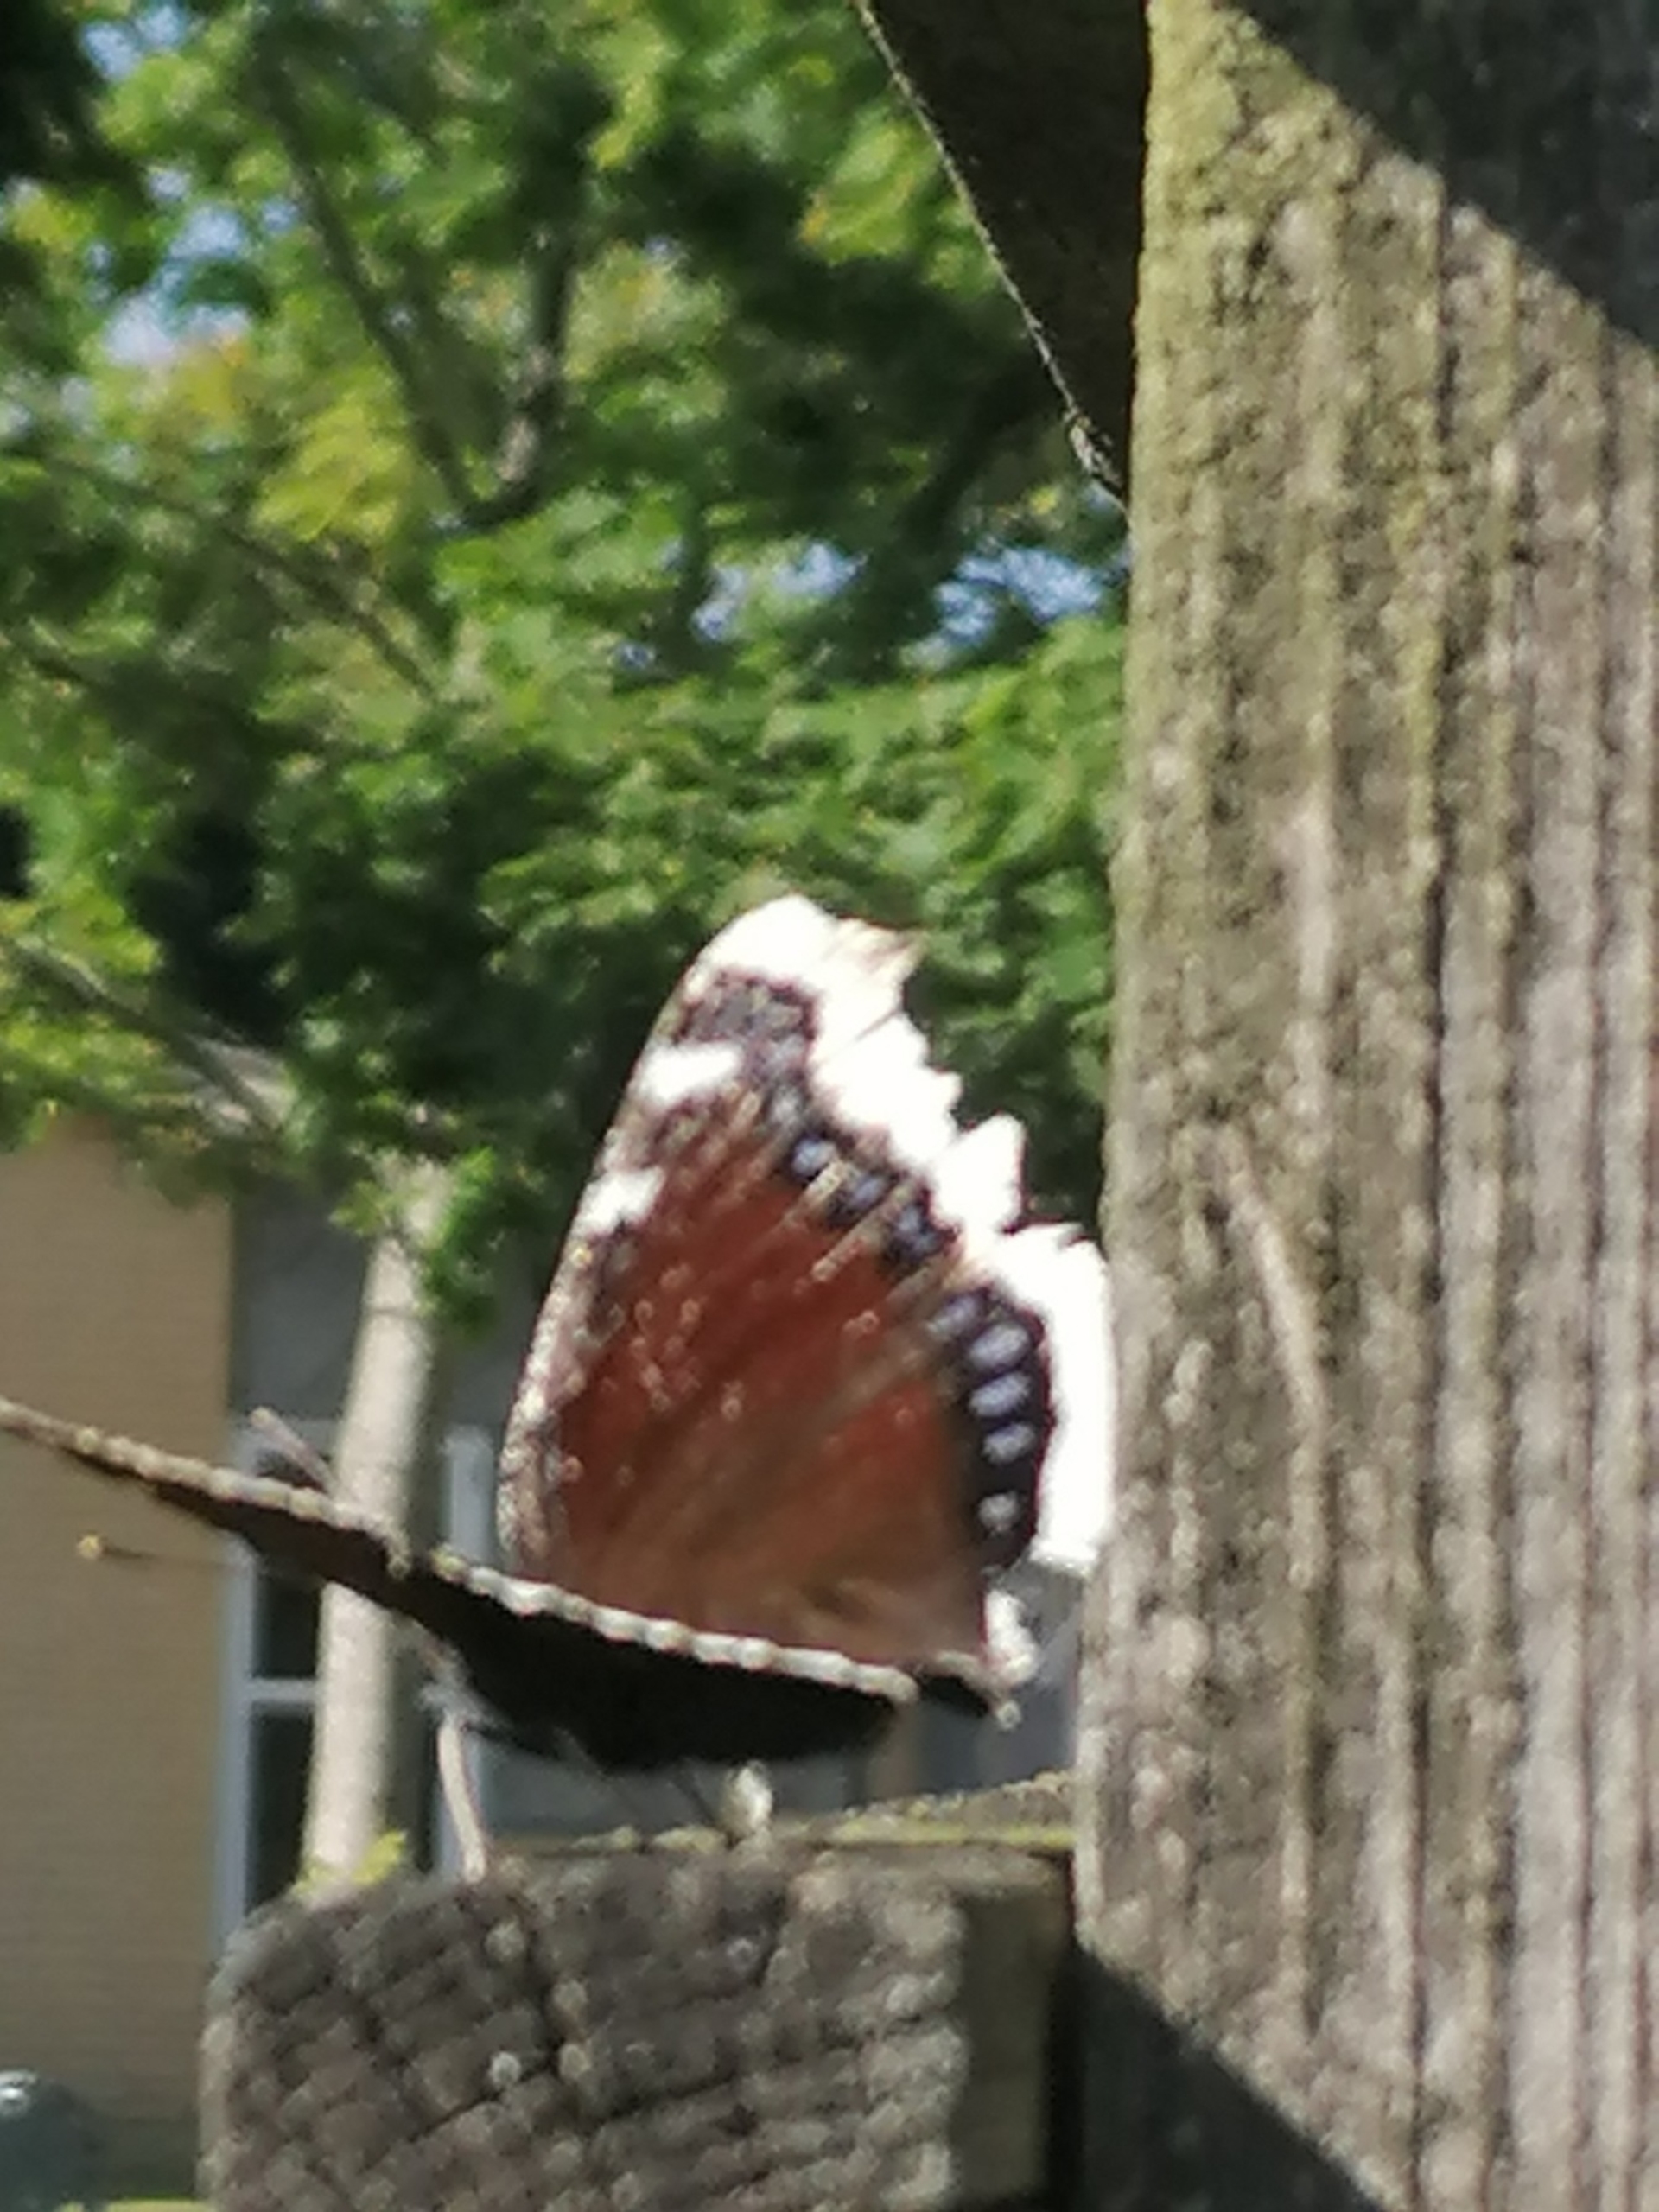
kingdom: Animalia
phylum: Arthropoda
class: Insecta
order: Lepidoptera
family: Nymphalidae
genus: Nymphalis
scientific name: Nymphalis antiopa
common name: Sørgekåbe
